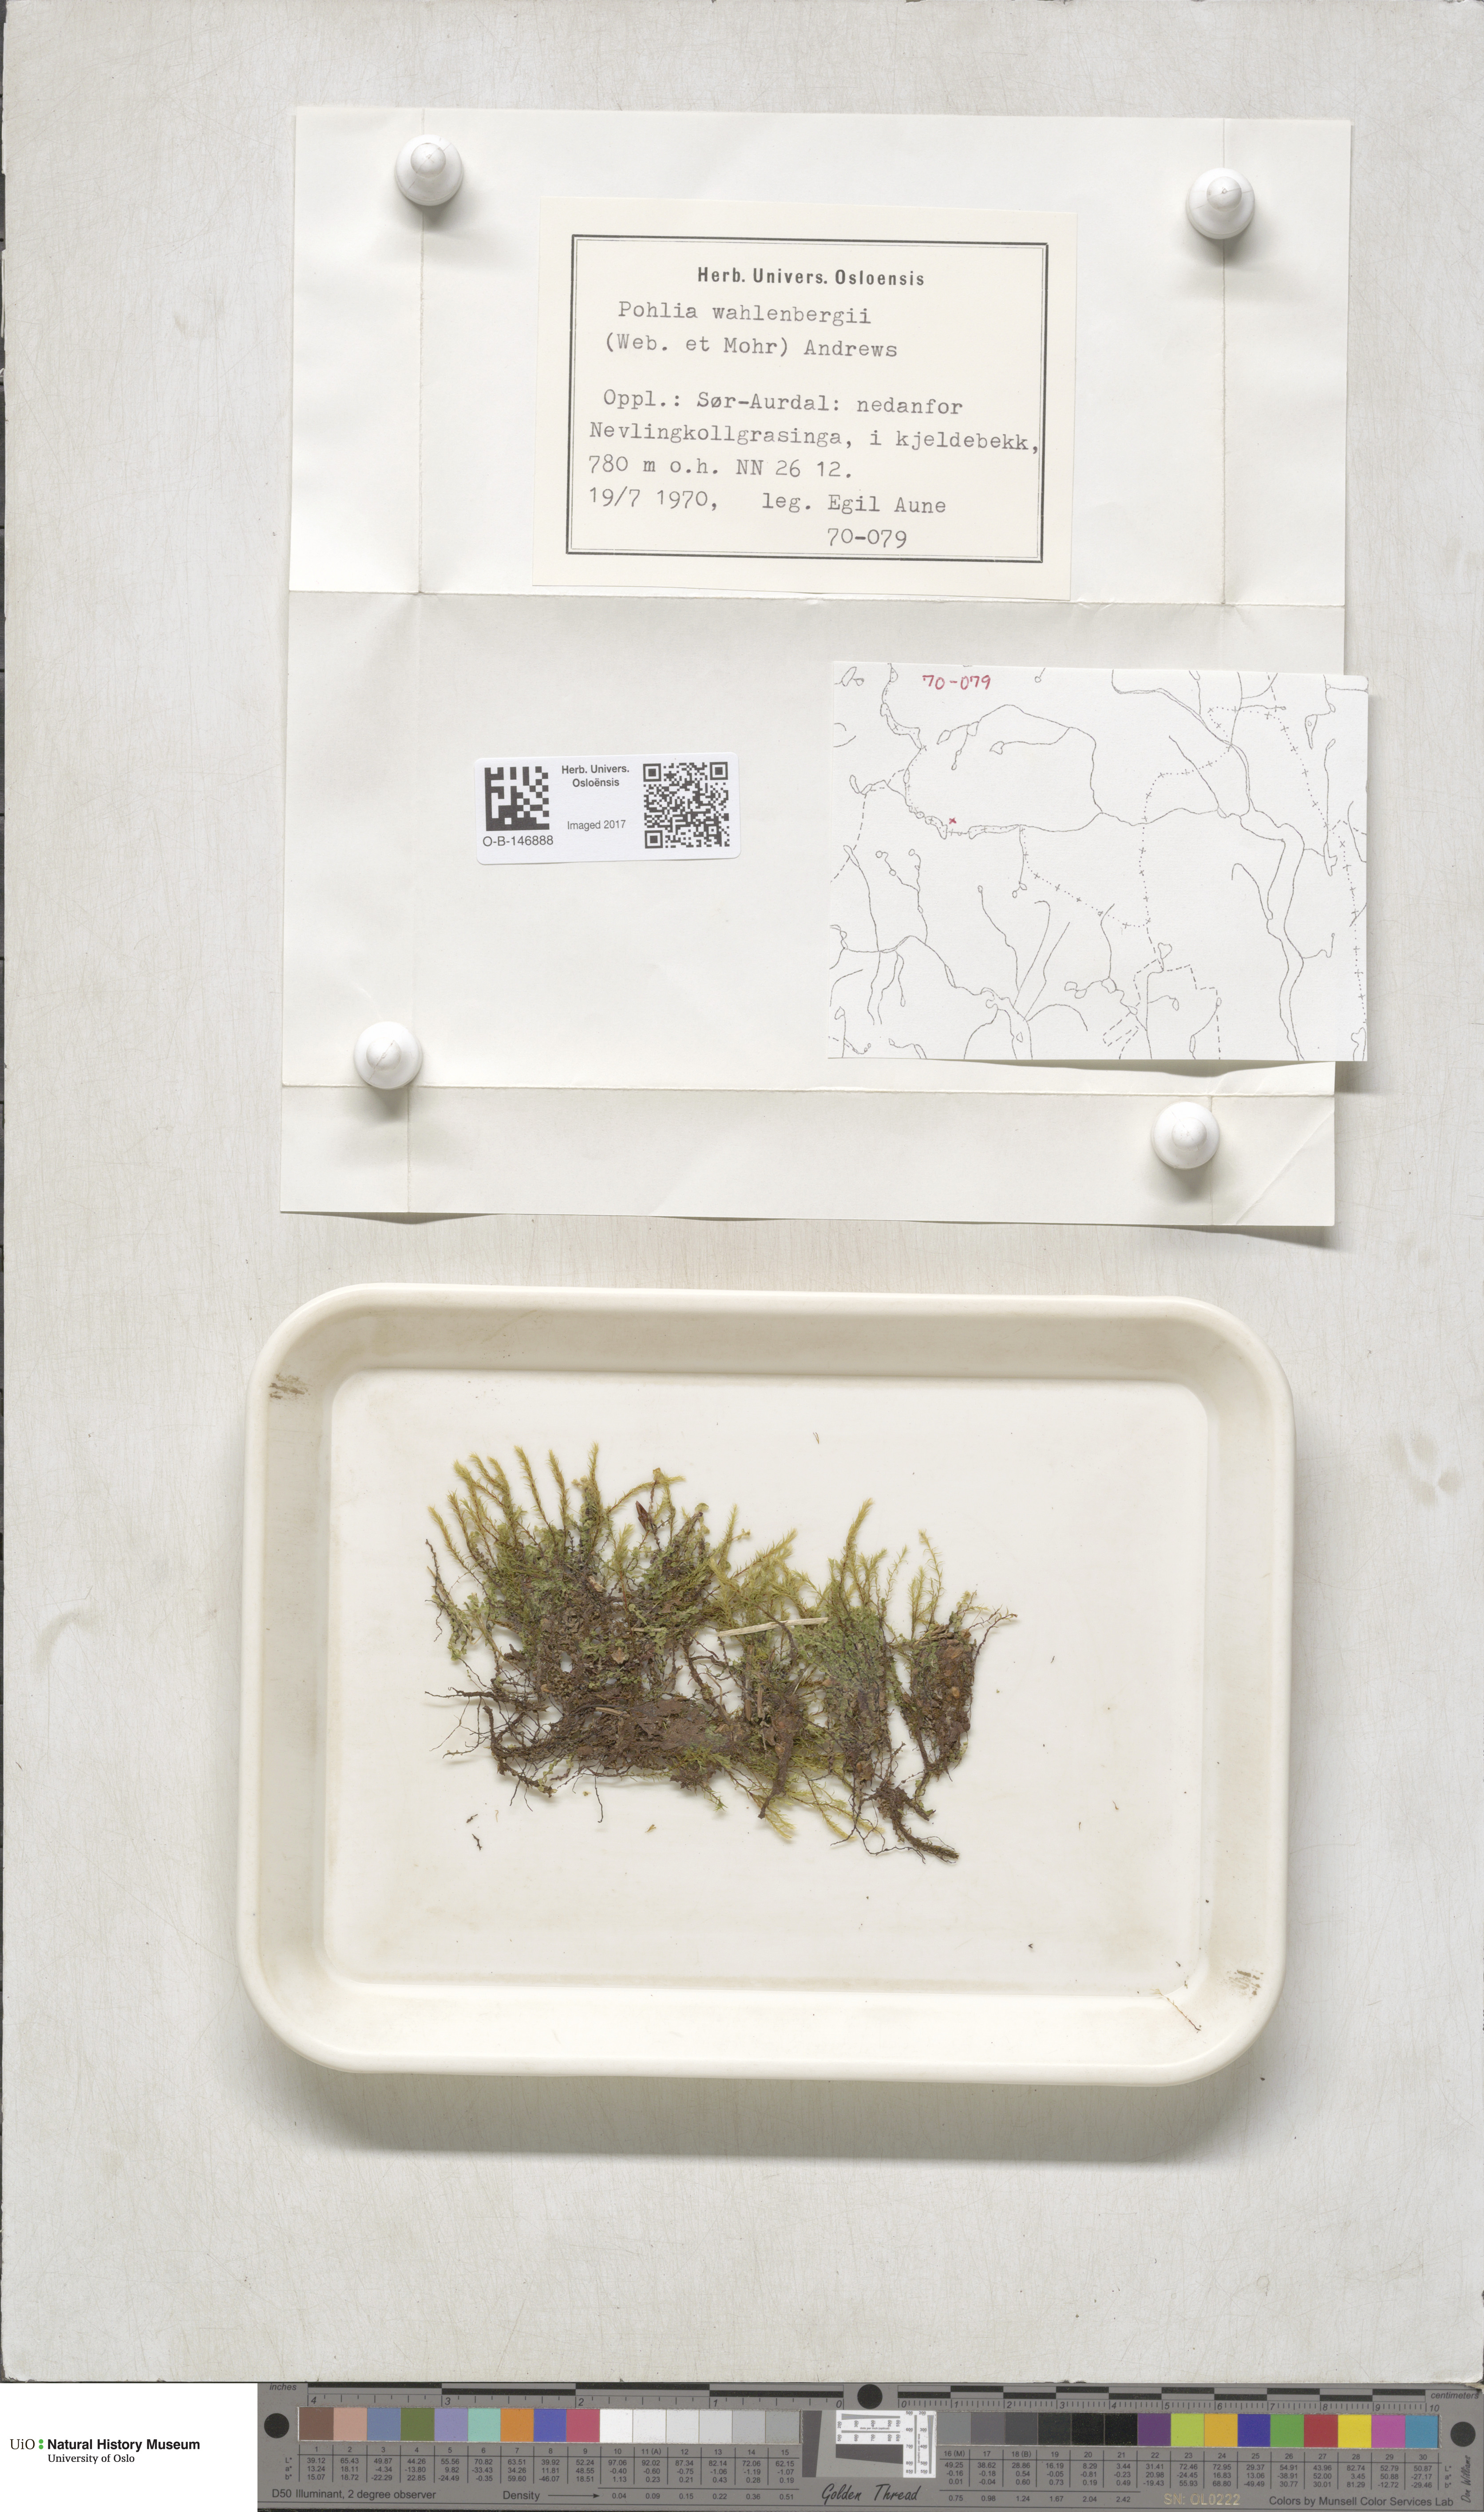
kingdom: Plantae
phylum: Bryophyta
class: Bryopsida
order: Bryales
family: Mniaceae
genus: Pohlia
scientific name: Pohlia wahlenbergii
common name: Wahlenberg's nodding moss
